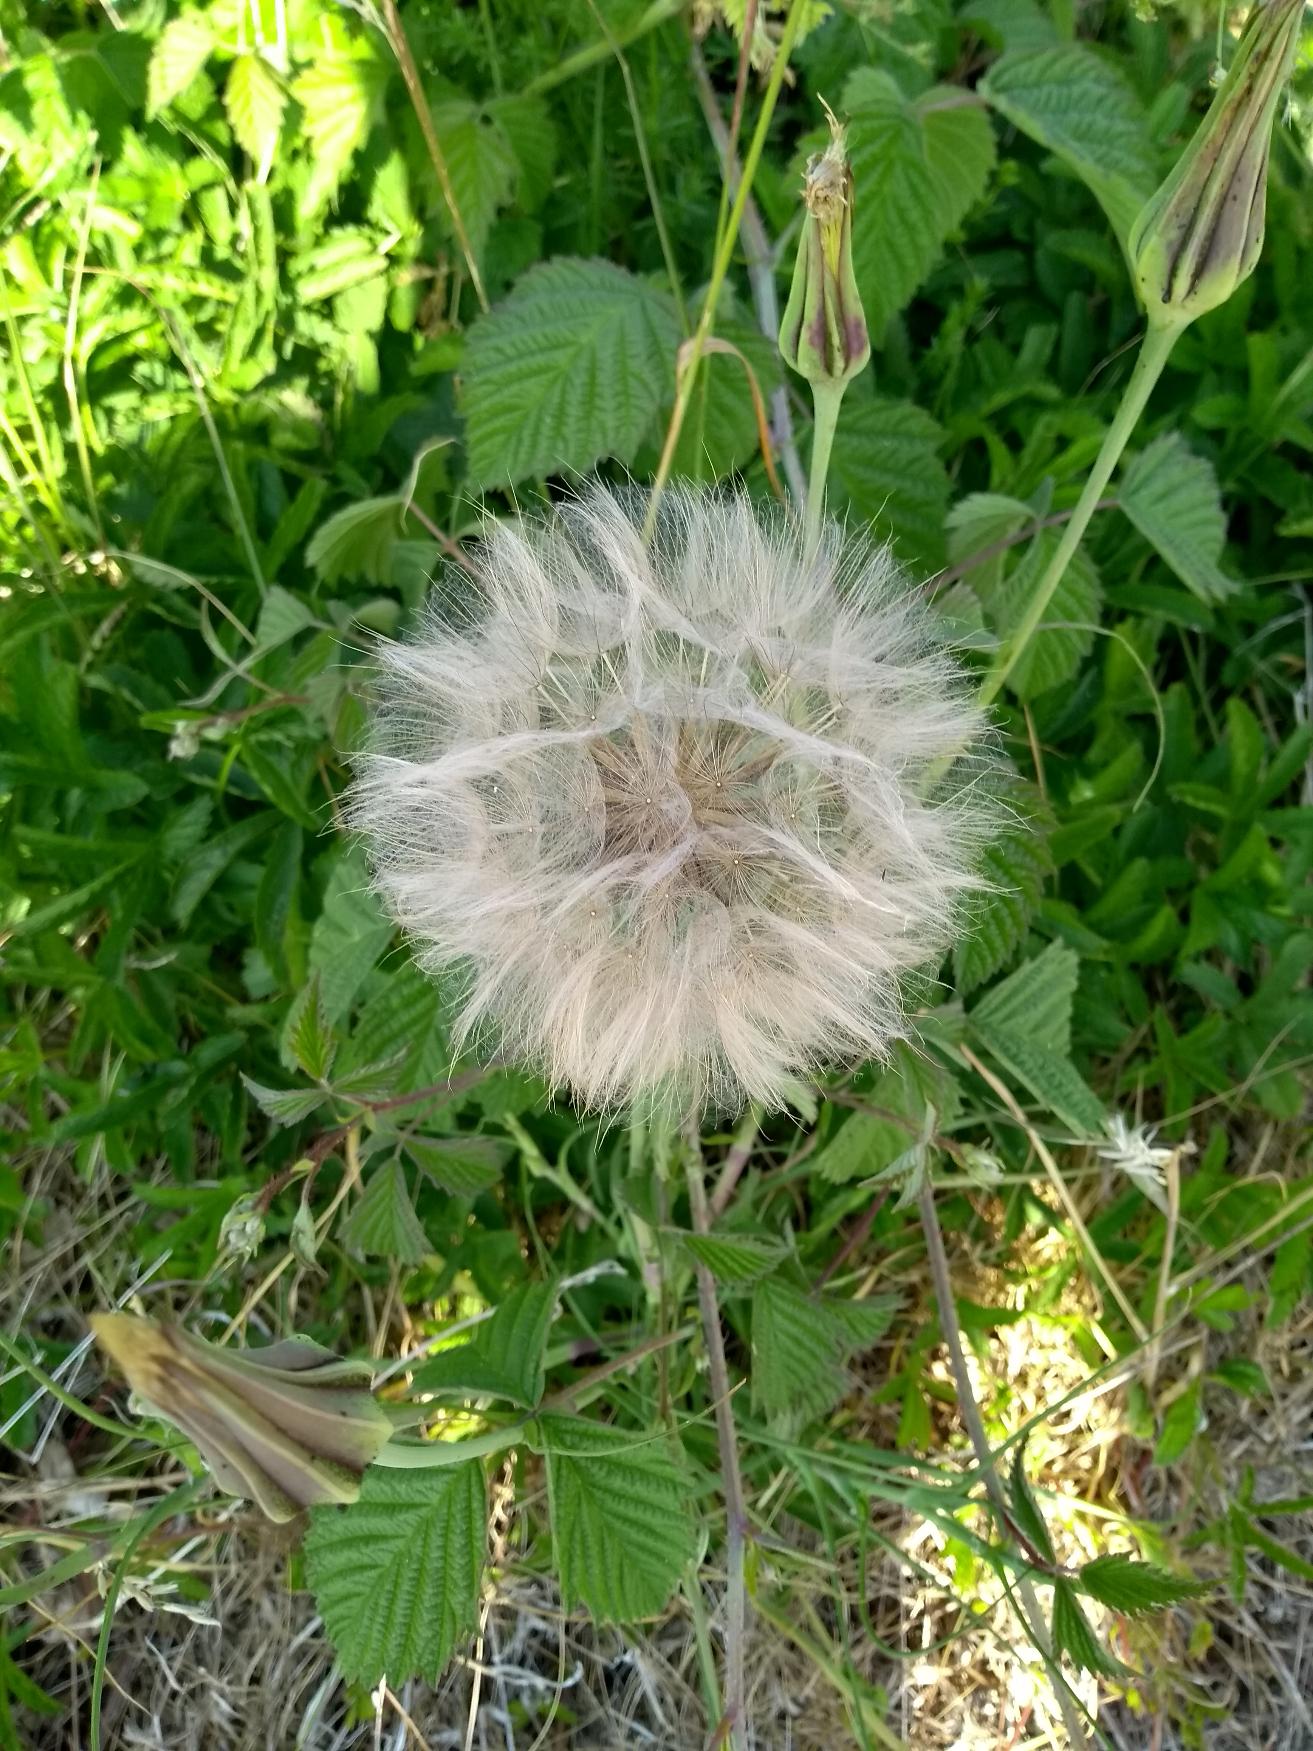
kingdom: Plantae
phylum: Tracheophyta
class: Magnoliopsida
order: Asterales
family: Asteraceae
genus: Tragopogon
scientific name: Tragopogon pratensis
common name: Gedeskæg
